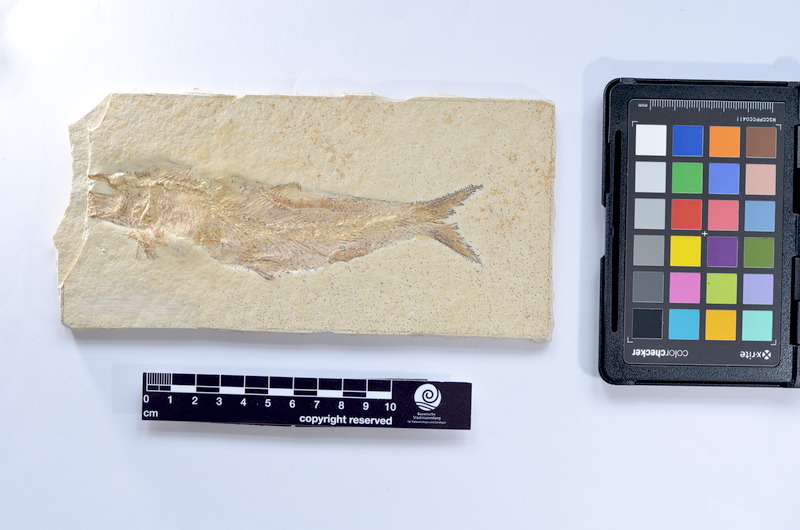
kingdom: Animalia
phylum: Chordata
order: Elopiformes
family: Anaethalionidae
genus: Anaethalion
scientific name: Anaethalion knorri
